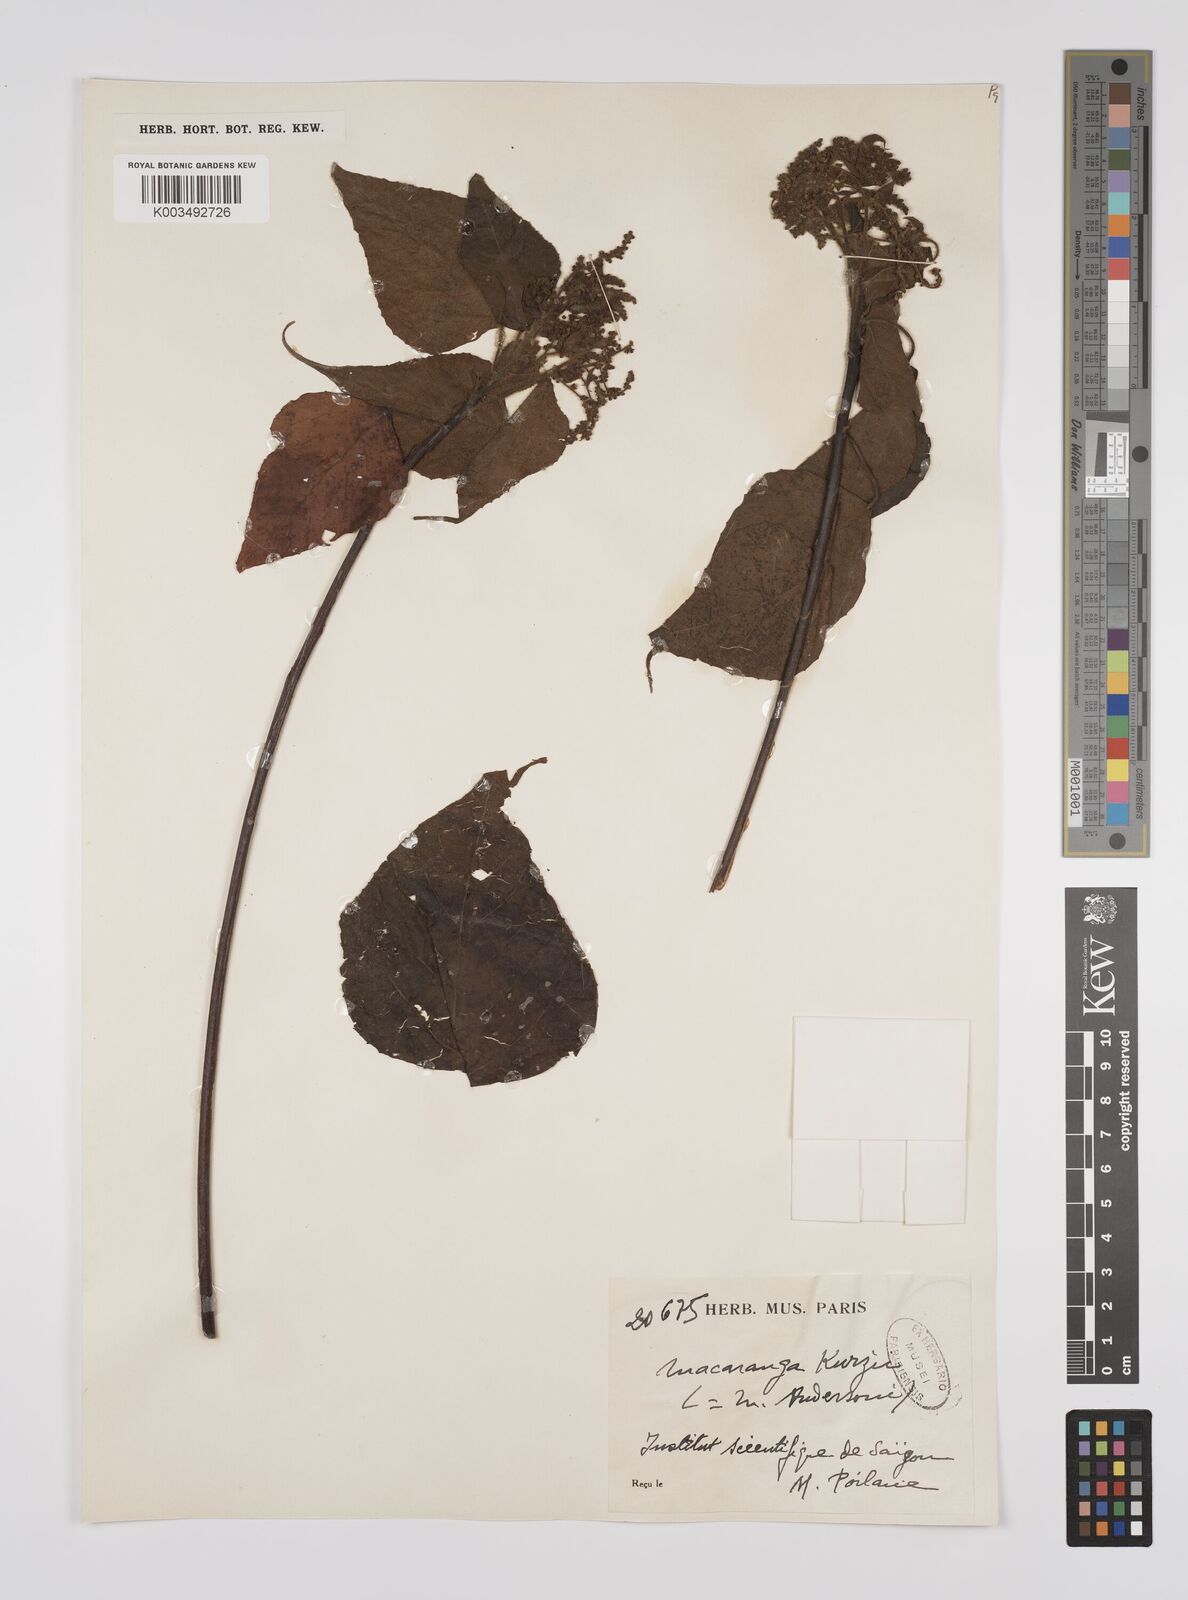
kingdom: Plantae
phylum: Tracheophyta
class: Magnoliopsida
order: Malpighiales
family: Euphorbiaceae
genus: Macaranga
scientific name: Macaranga kurzii
